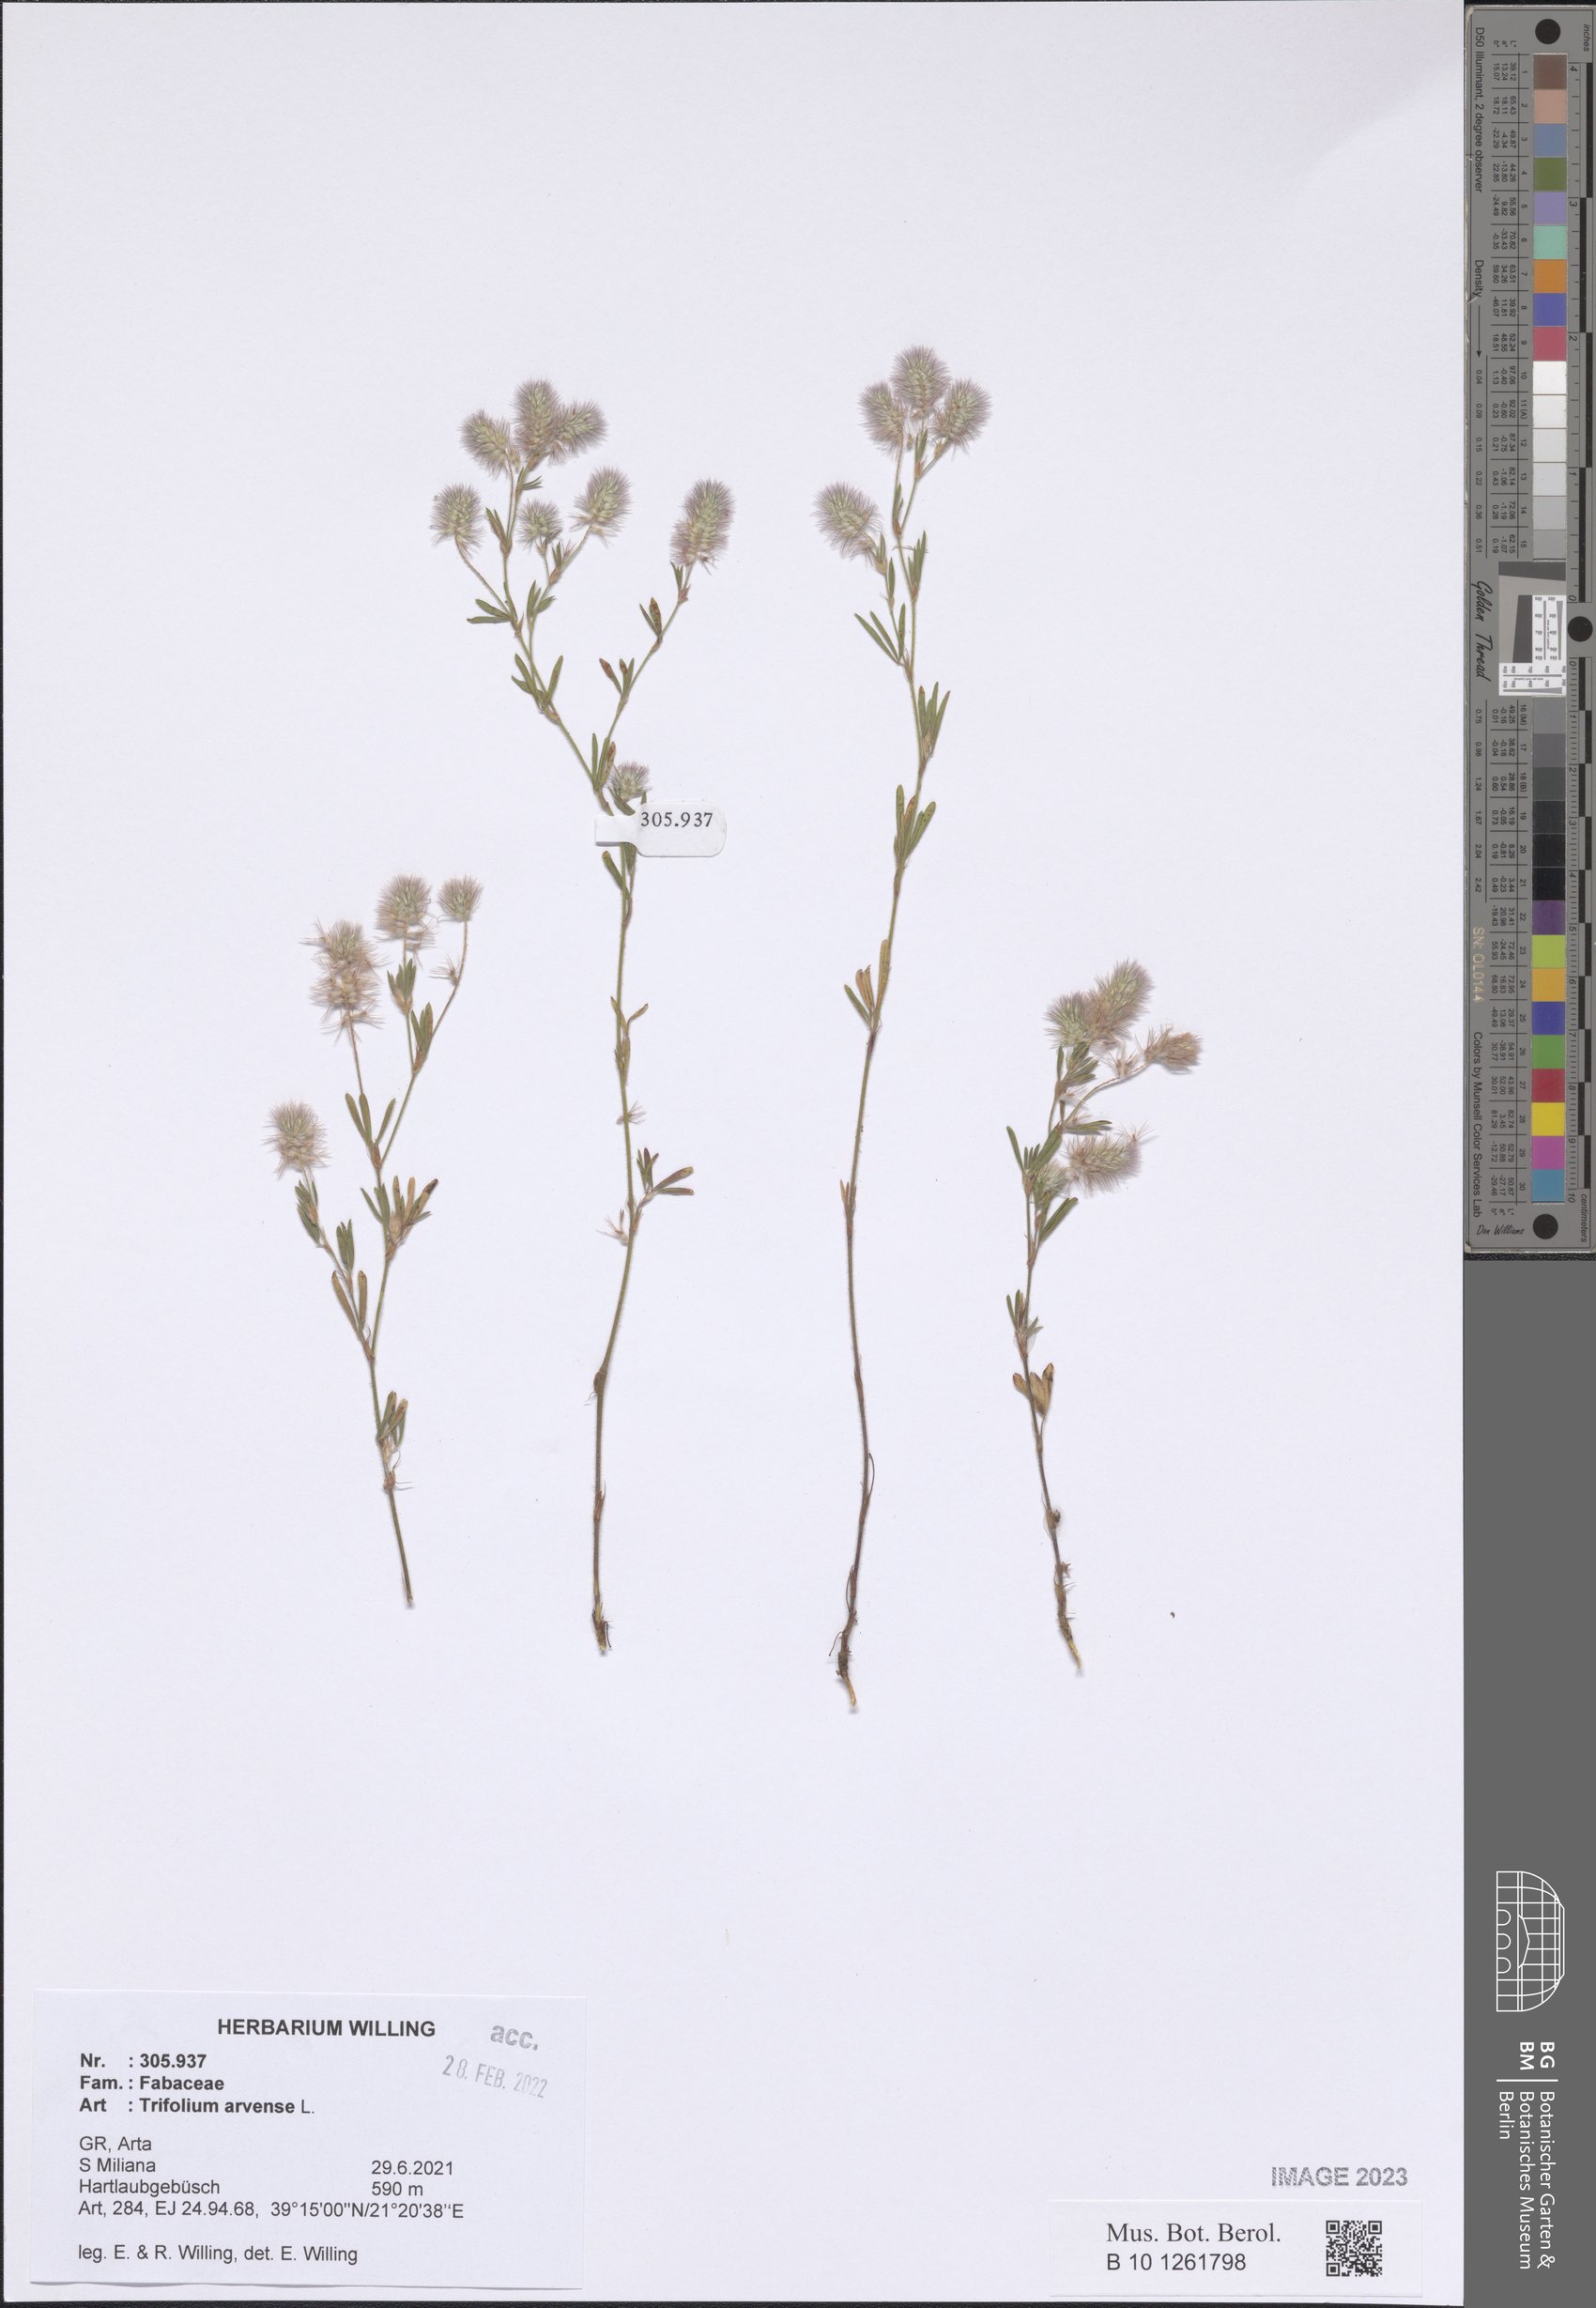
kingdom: Plantae
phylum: Tracheophyta
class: Magnoliopsida
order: Fabales
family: Fabaceae
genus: Trifolium
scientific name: Trifolium arvense
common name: Hare's-foot clover
